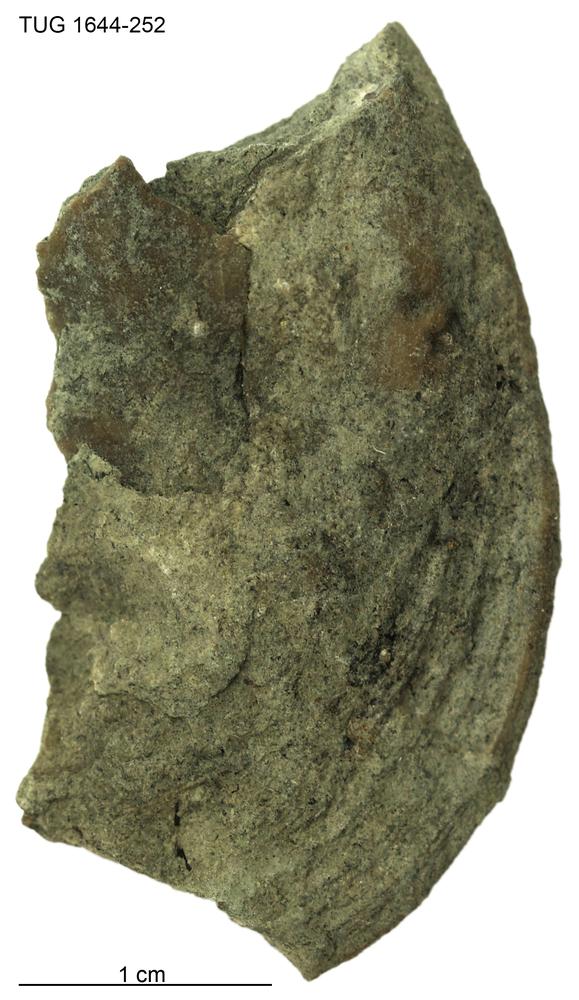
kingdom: Animalia
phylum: Mollusca
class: Monoplacophora
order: Tryblidiida
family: Tryblidiidae
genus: Pilina
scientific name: Pilina
